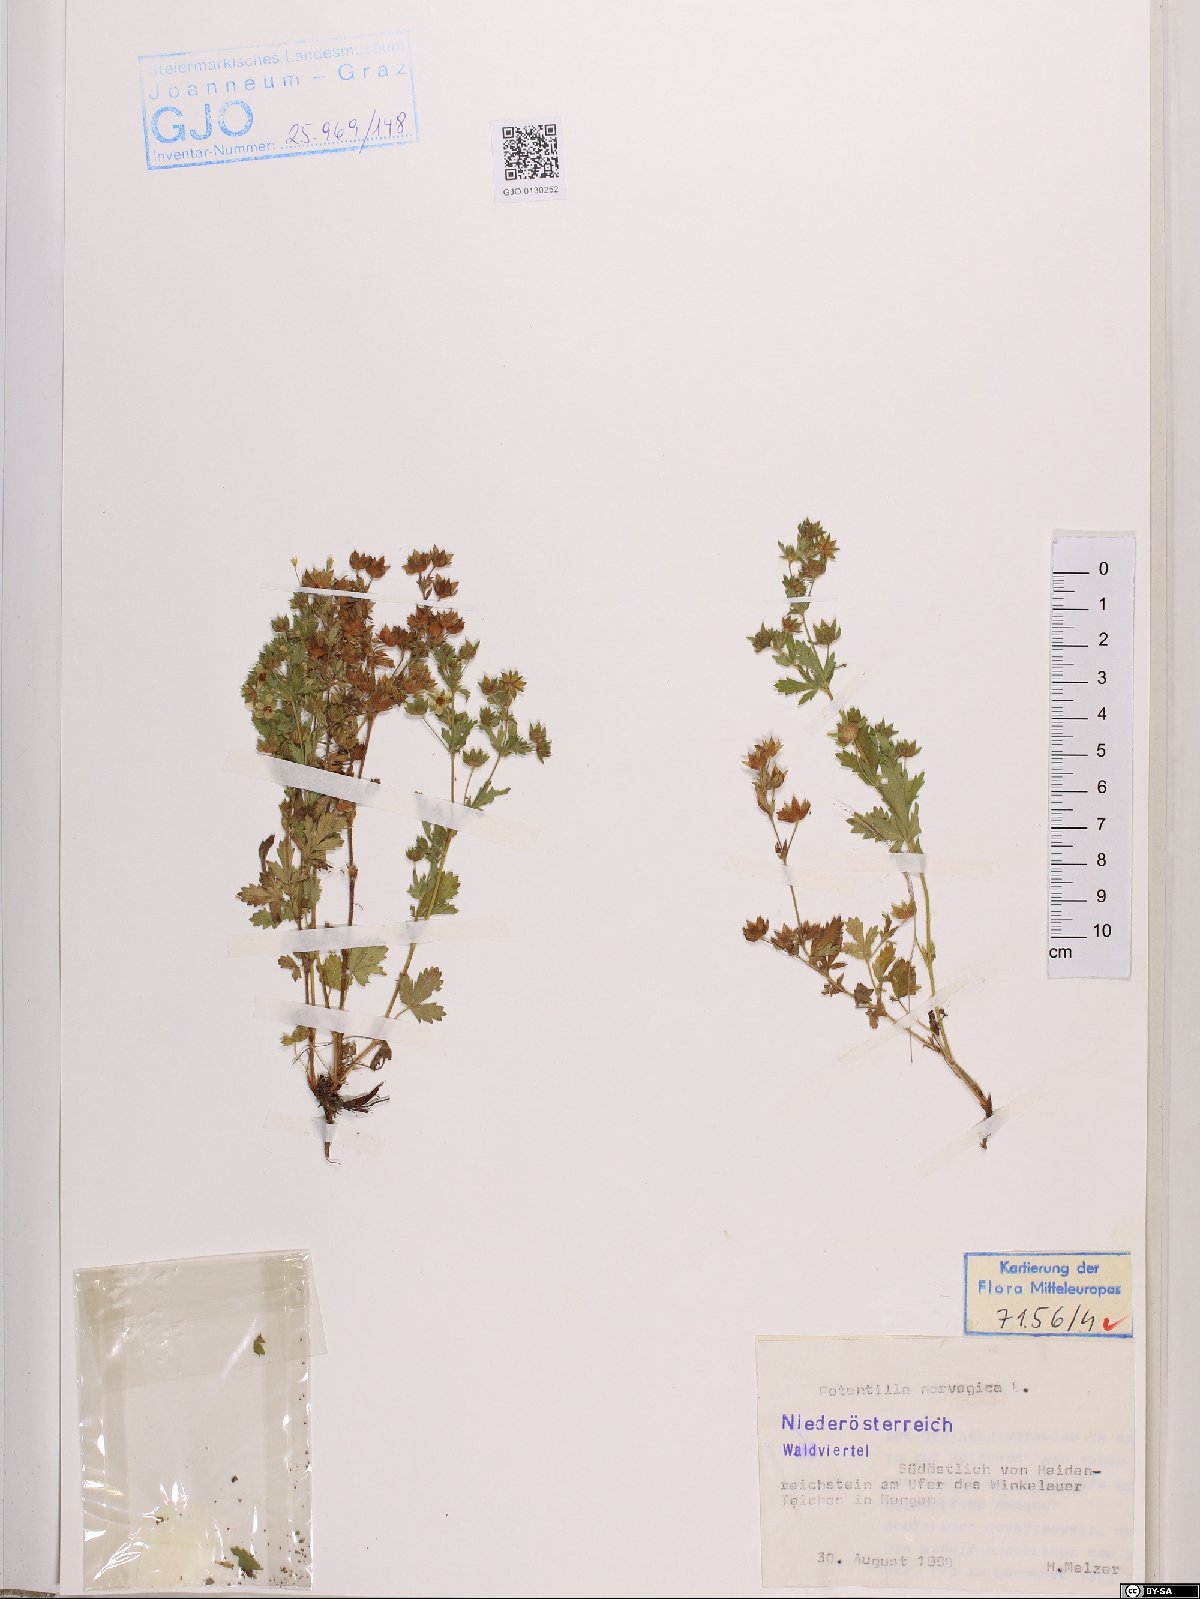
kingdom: Plantae
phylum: Tracheophyta
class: Magnoliopsida
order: Rosales
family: Rosaceae
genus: Potentilla
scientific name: Potentilla norvegica
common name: Ternate-leaved cinquefoil
